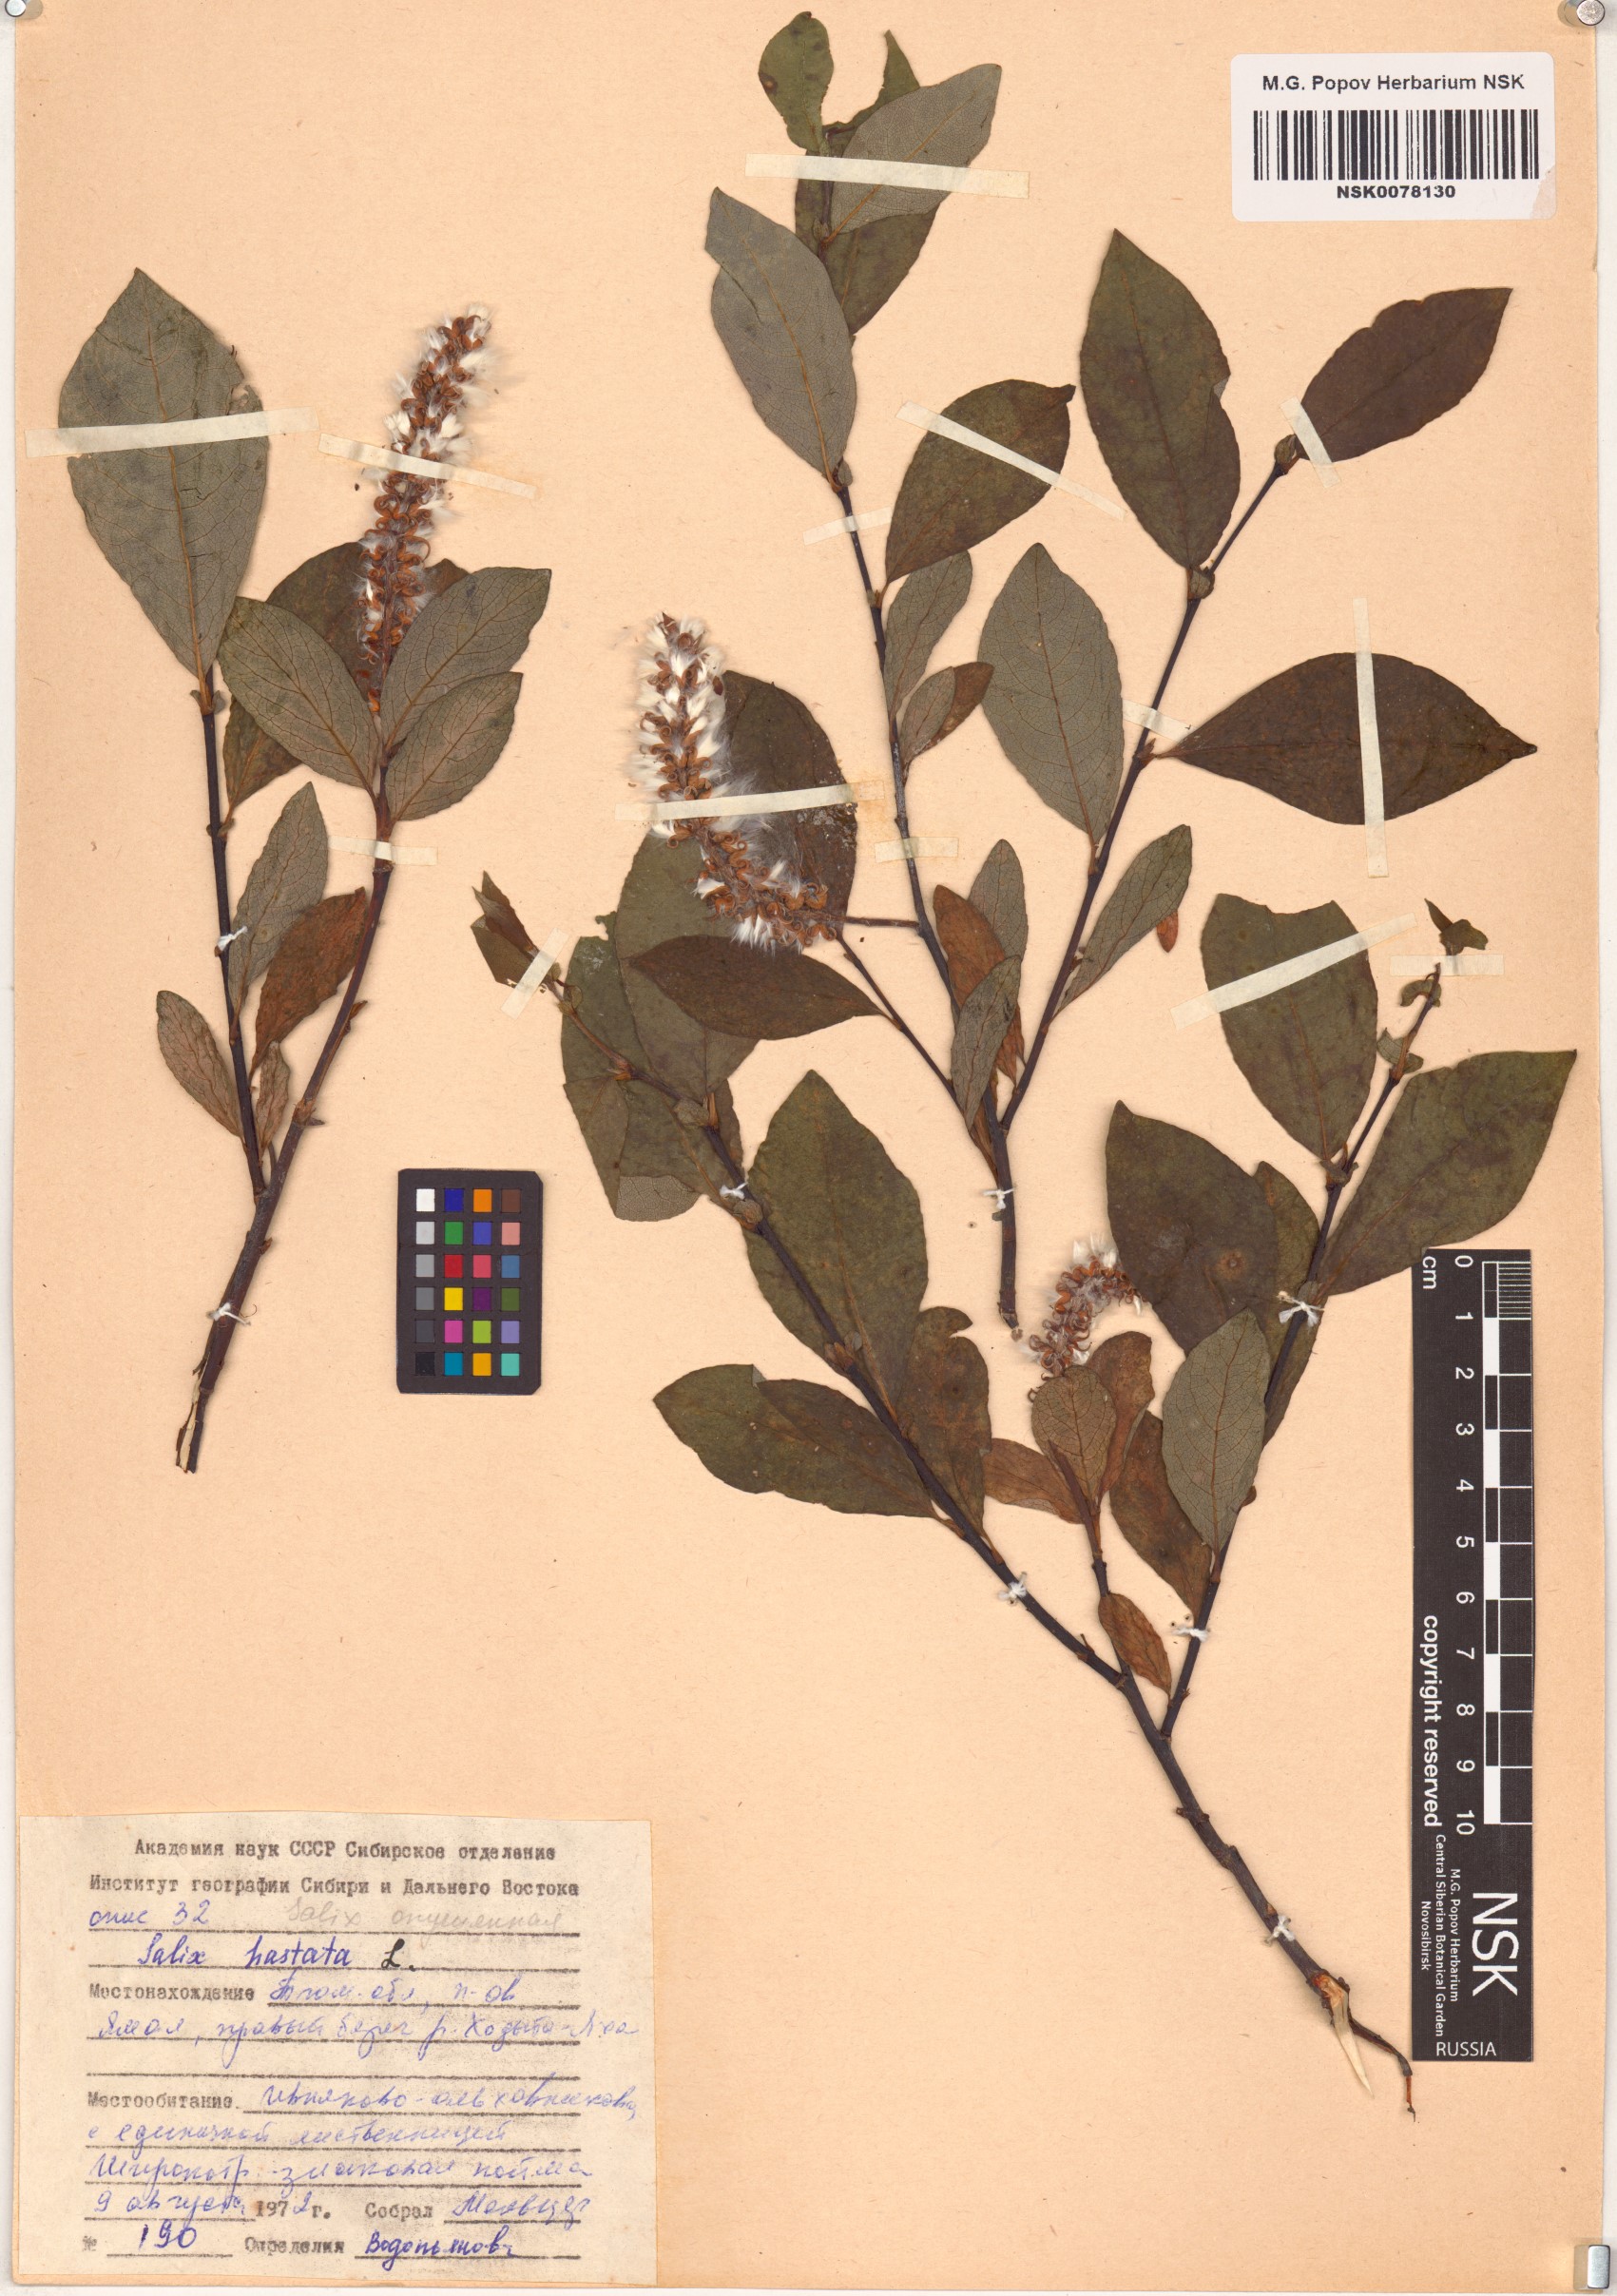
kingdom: Plantae
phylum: Tracheophyta
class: Magnoliopsida
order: Malpighiales
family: Salicaceae
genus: Salix
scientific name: Salix hastata
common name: Halberd willow
